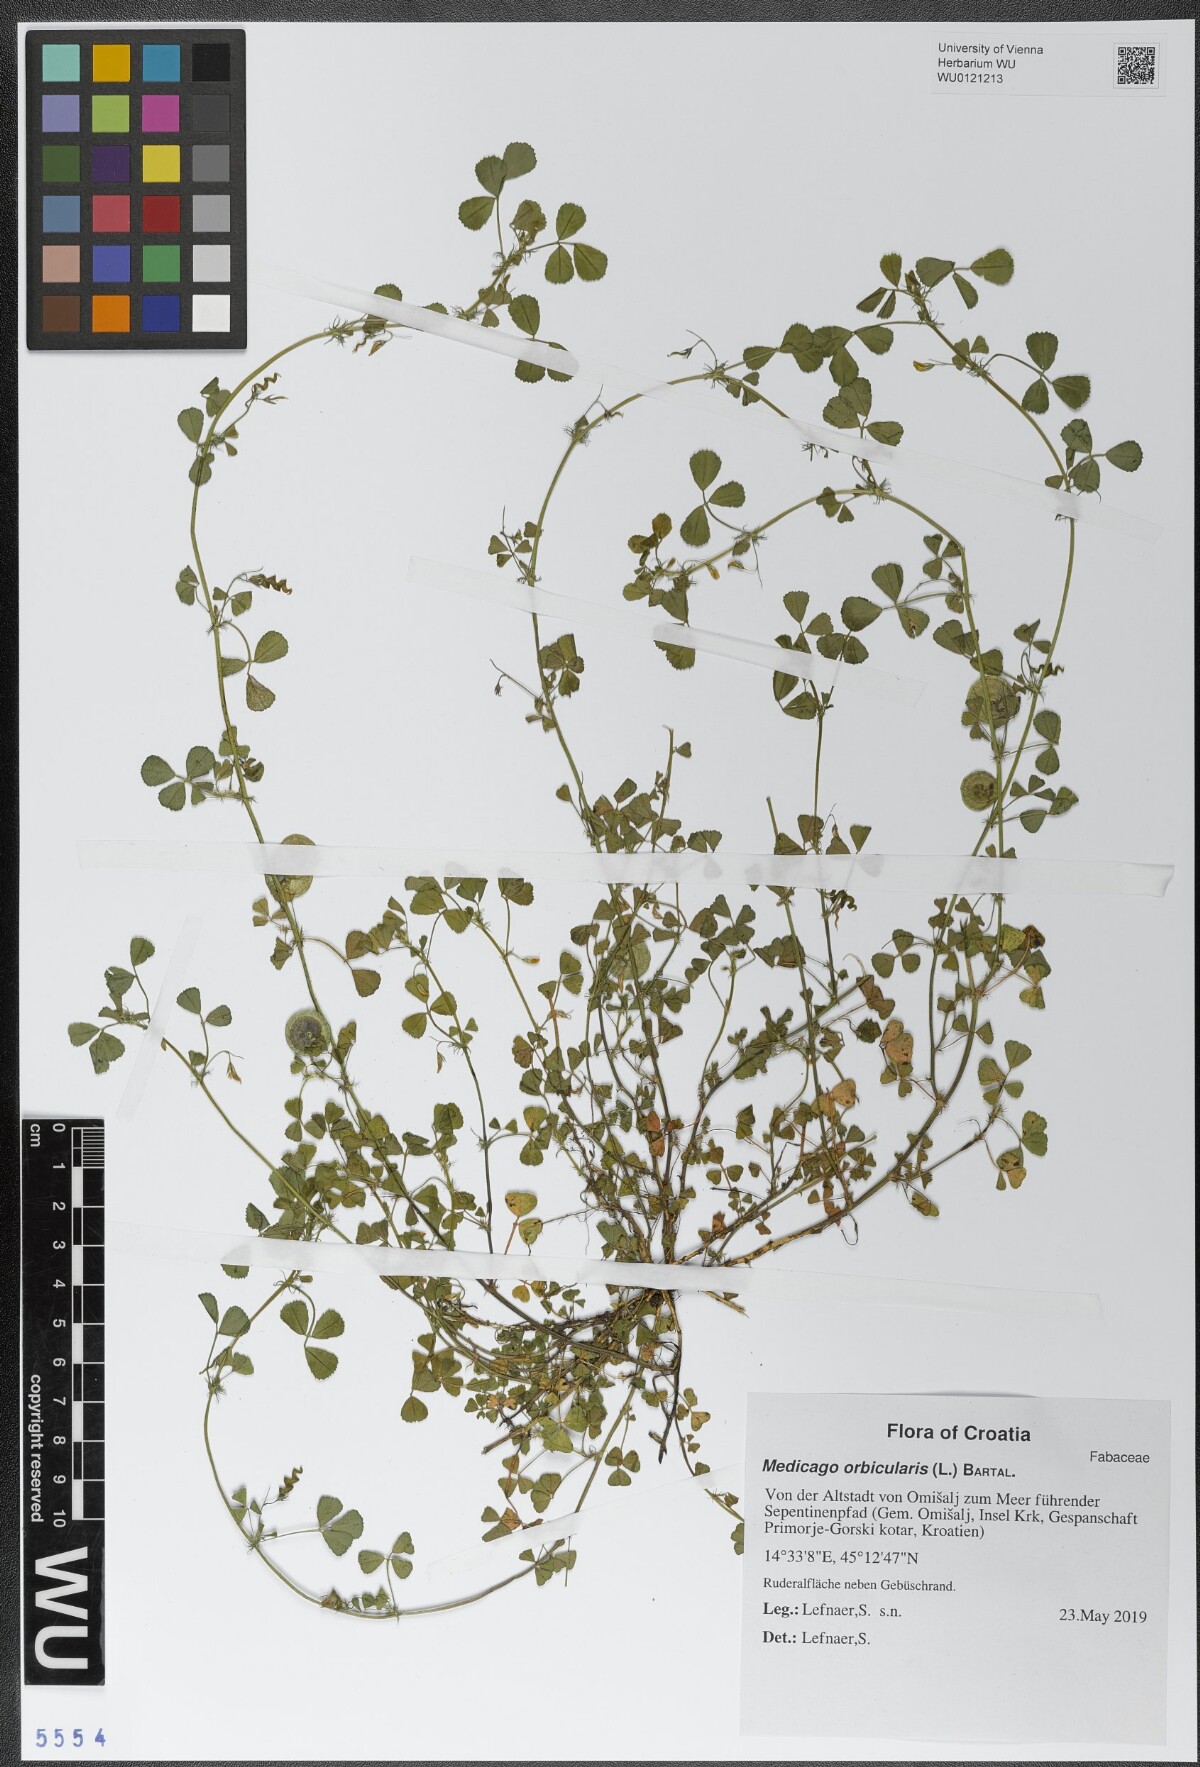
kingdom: Plantae
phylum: Tracheophyta
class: Magnoliopsida
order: Fabales
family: Fabaceae
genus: Medicago
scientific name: Medicago orbicularis
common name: Button medick
